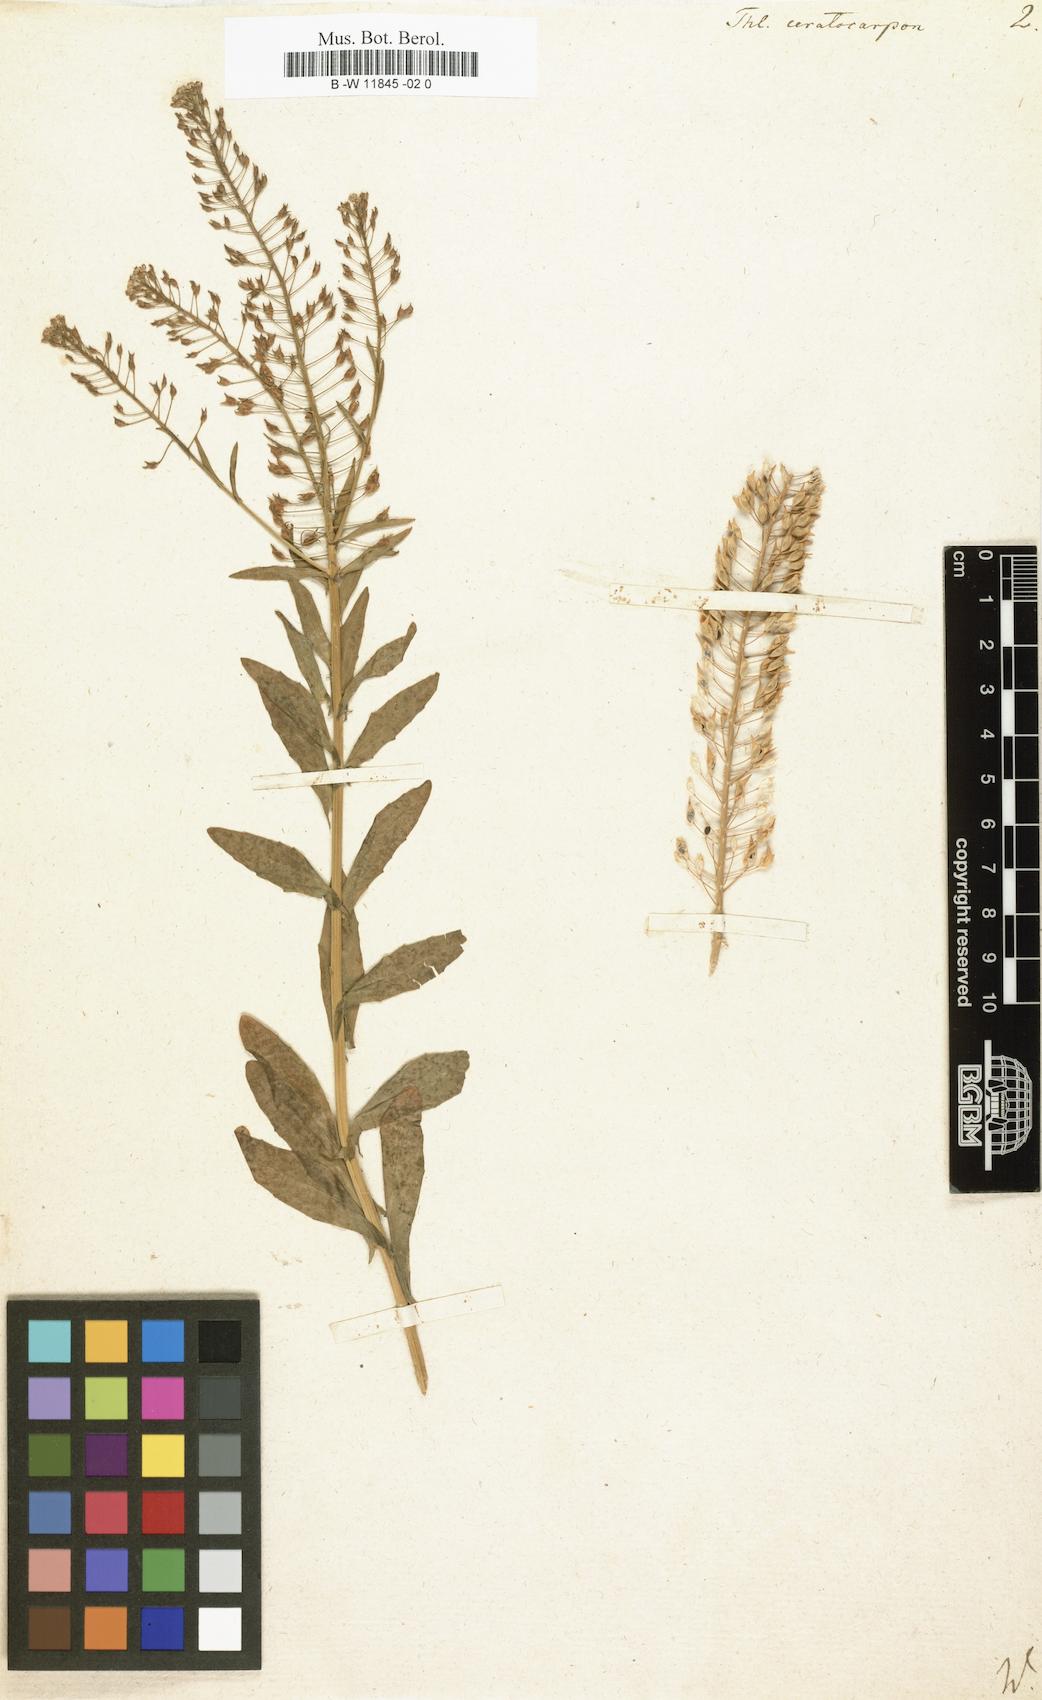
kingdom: Plantae
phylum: Tracheophyta
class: Magnoliopsida
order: Brassicales
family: Brassicaceae
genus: Thlaspi
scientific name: Thlaspi ceratocarpum
